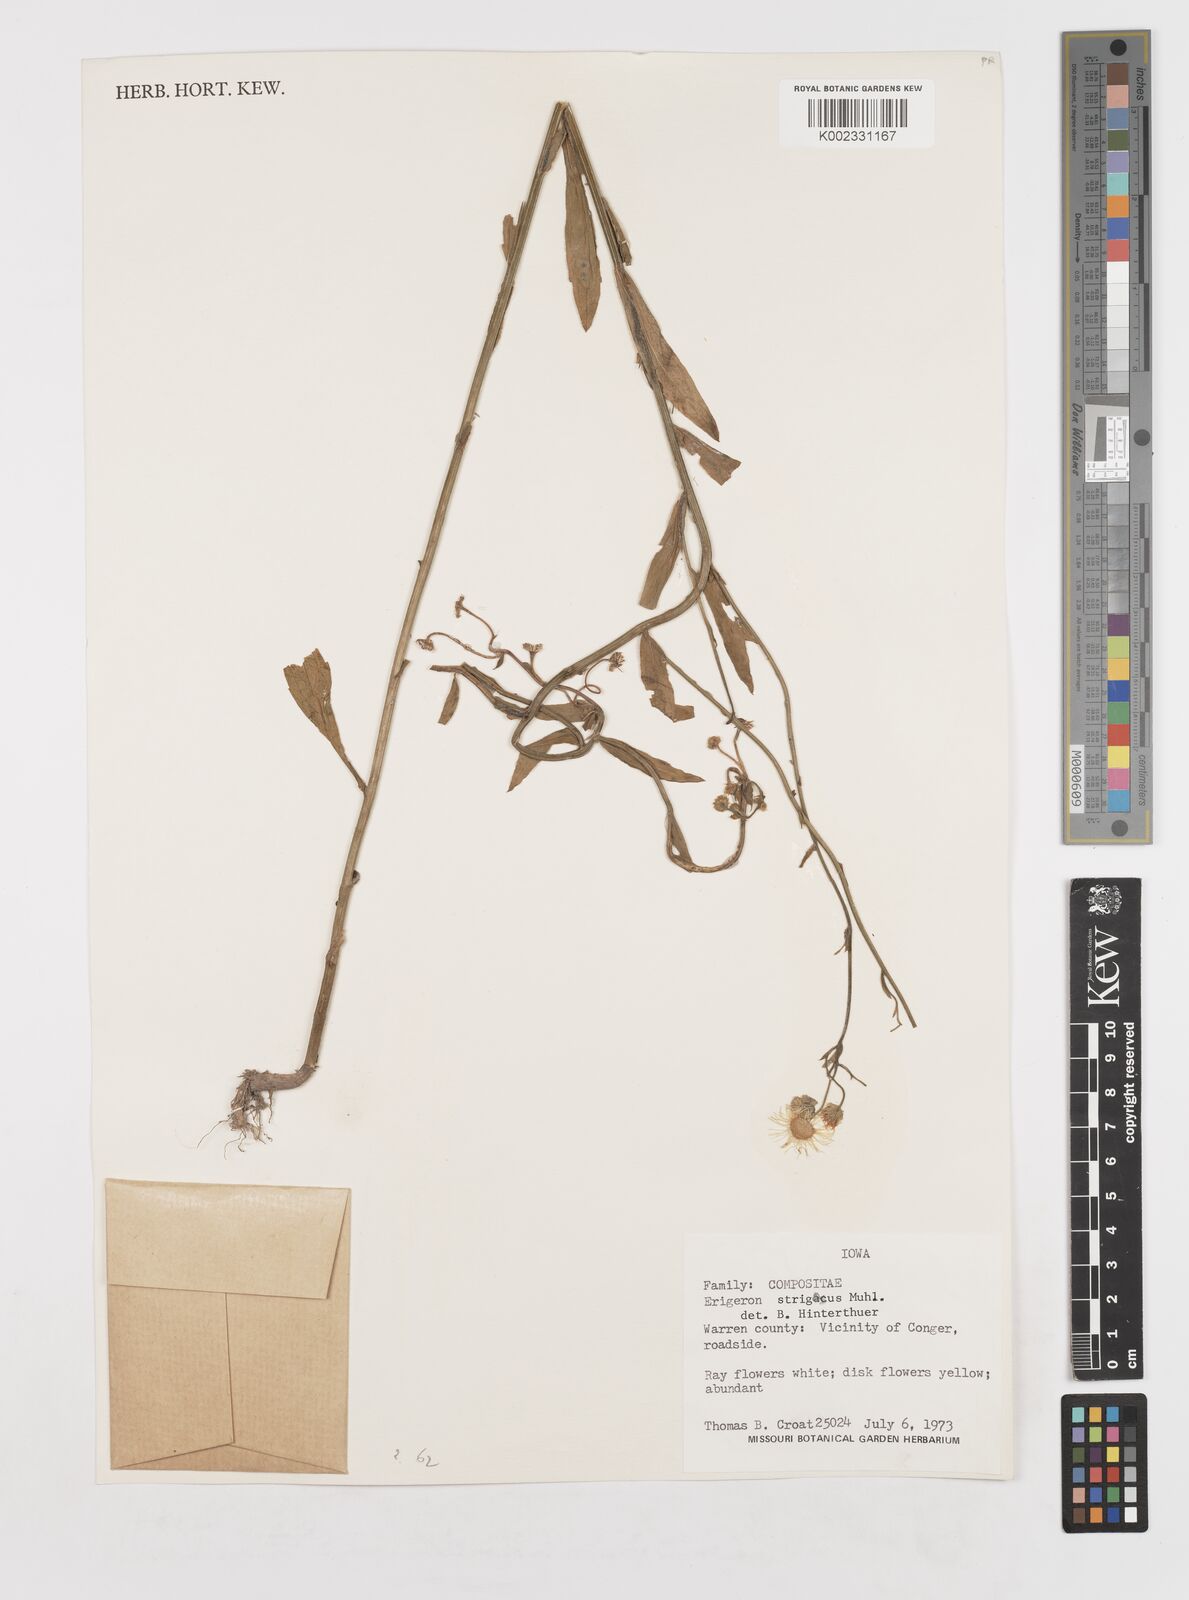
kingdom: Plantae
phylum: Tracheophyta
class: Magnoliopsida
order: Asterales
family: Asteraceae
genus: Erigeron
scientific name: Erigeron strigosus
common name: Common eastern fleabane
